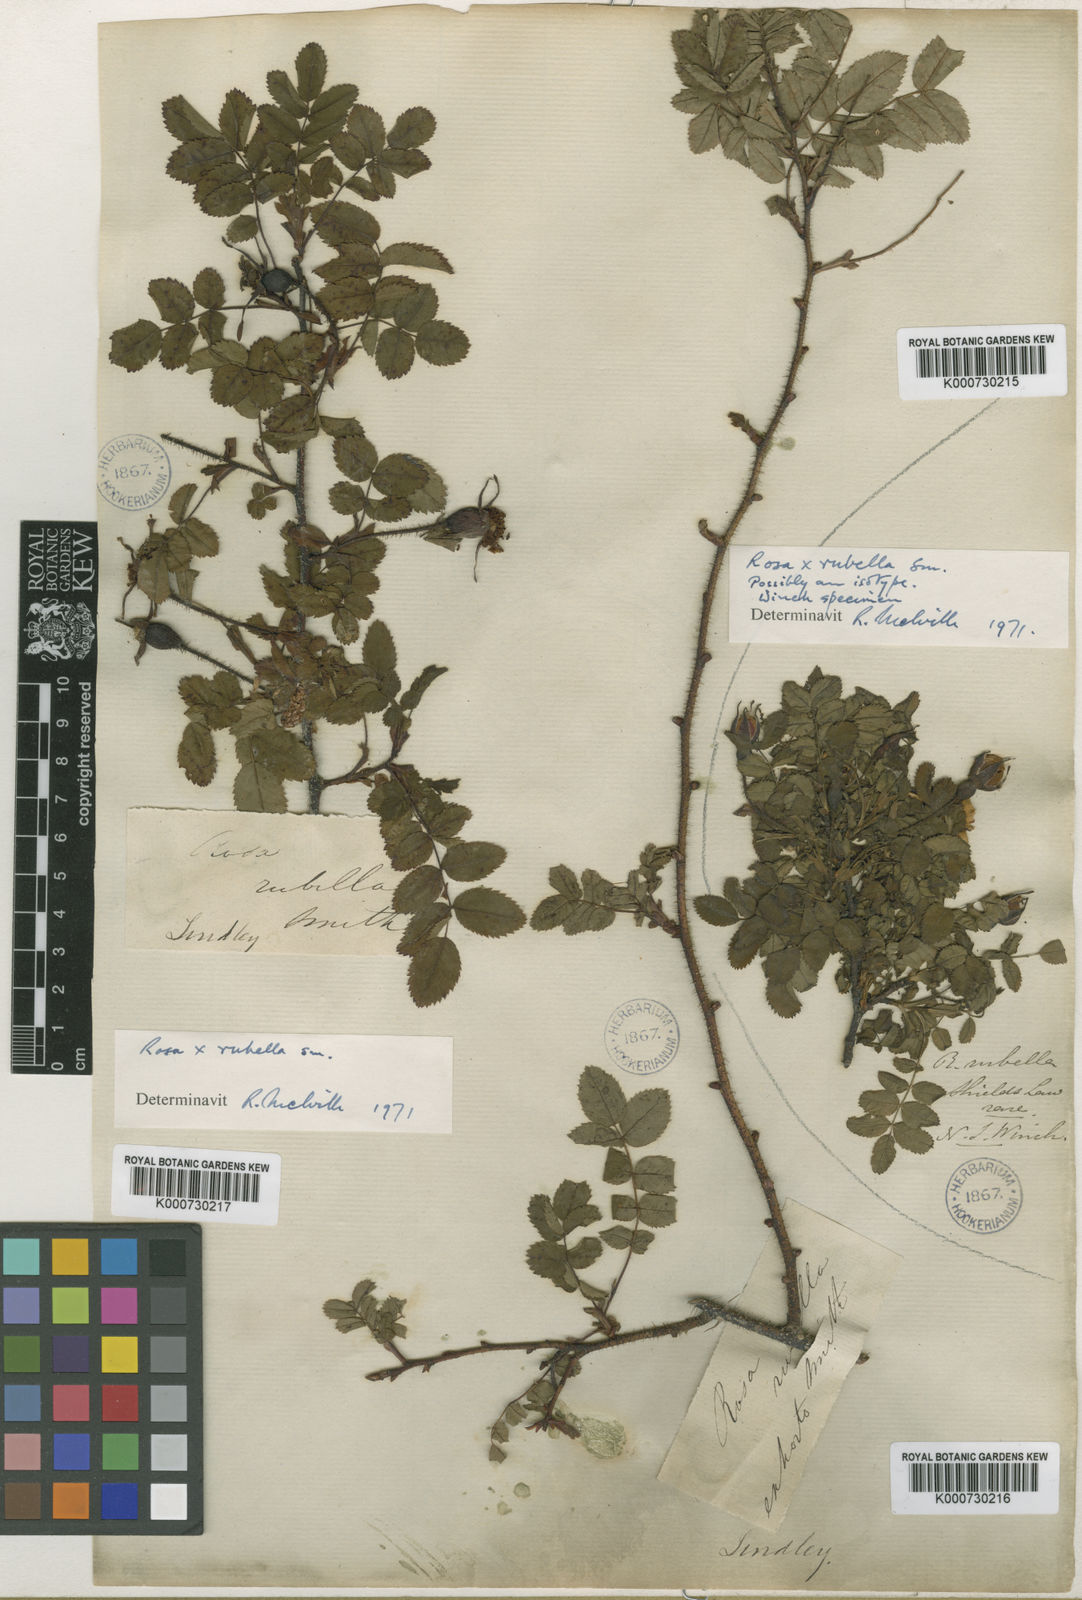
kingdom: Plantae
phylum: Tracheophyta
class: Magnoliopsida
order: Rosales
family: Rosaceae
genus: Rosa
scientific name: Rosa spinosissima
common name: Burnet rose
